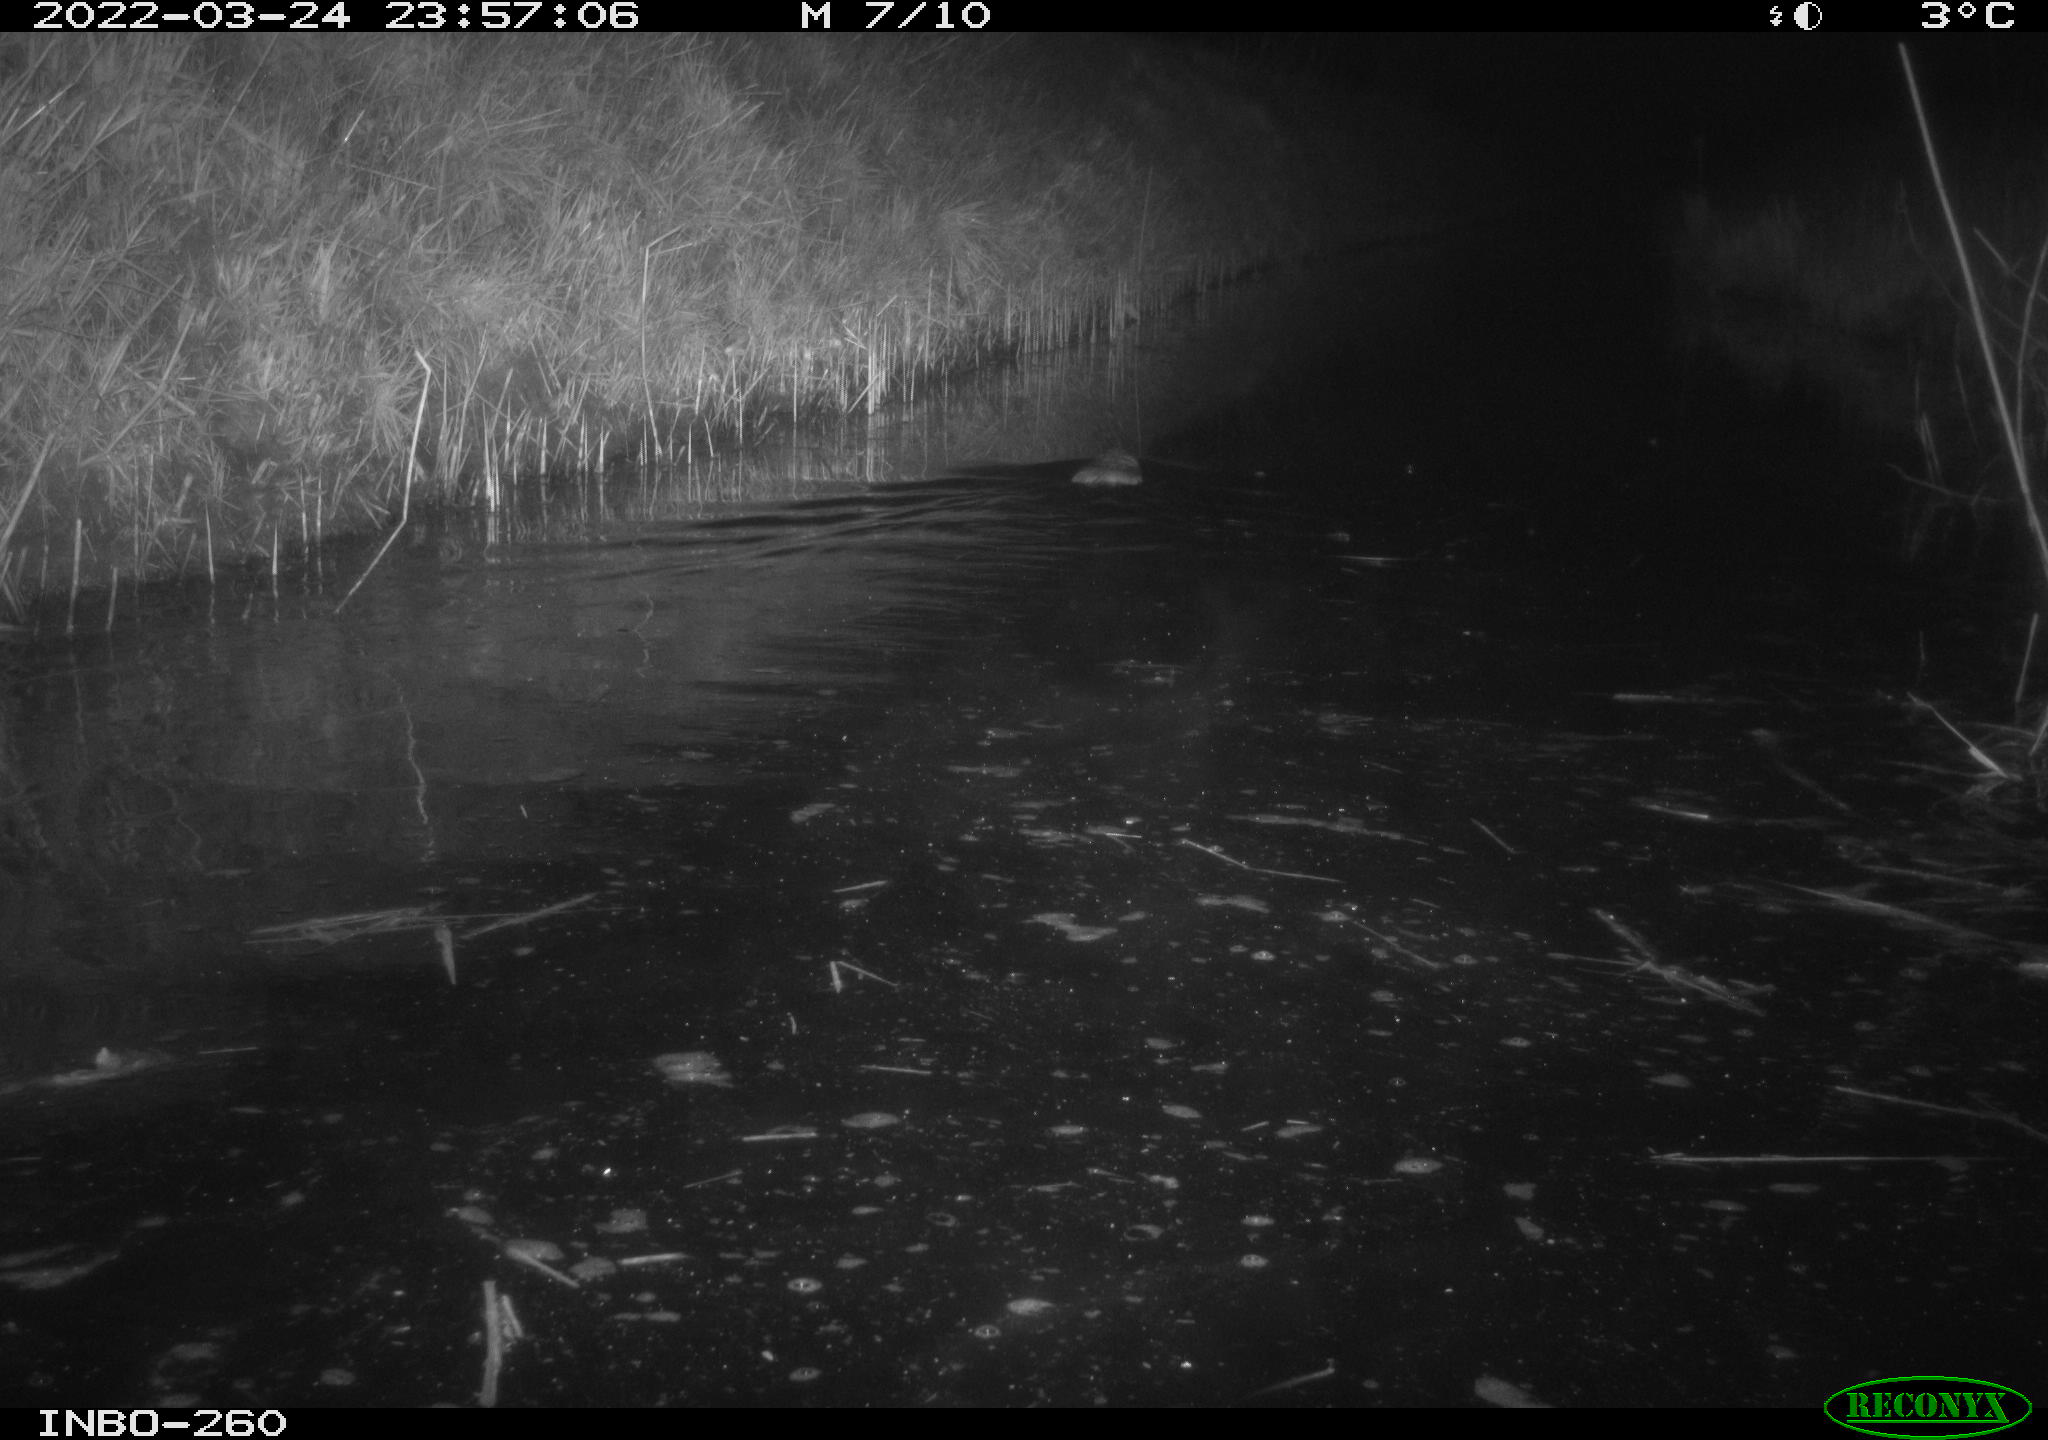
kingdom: Animalia
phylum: Chordata
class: Mammalia
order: Rodentia
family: Cricetidae
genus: Ondatra
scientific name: Ondatra zibethicus
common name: Muskrat
